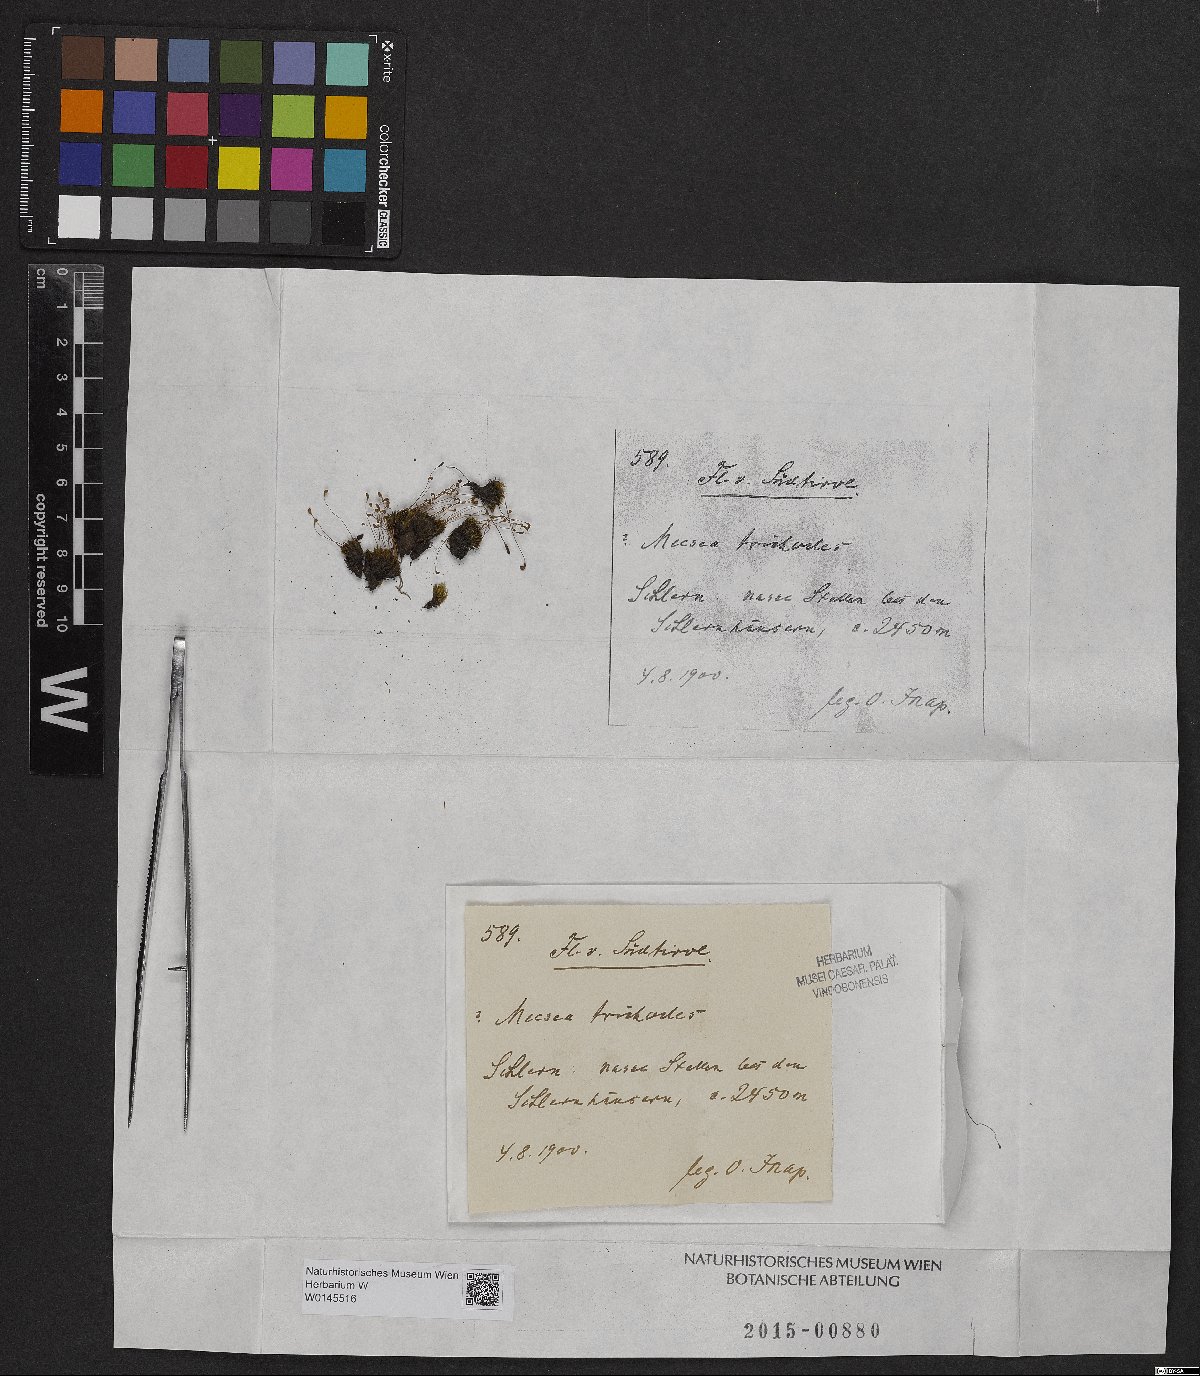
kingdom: Plantae
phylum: Bryophyta
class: Bryopsida
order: Splachnales
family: Meesiaceae
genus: Meesia
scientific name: Meesia uliginosa
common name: Capillary thread moss
